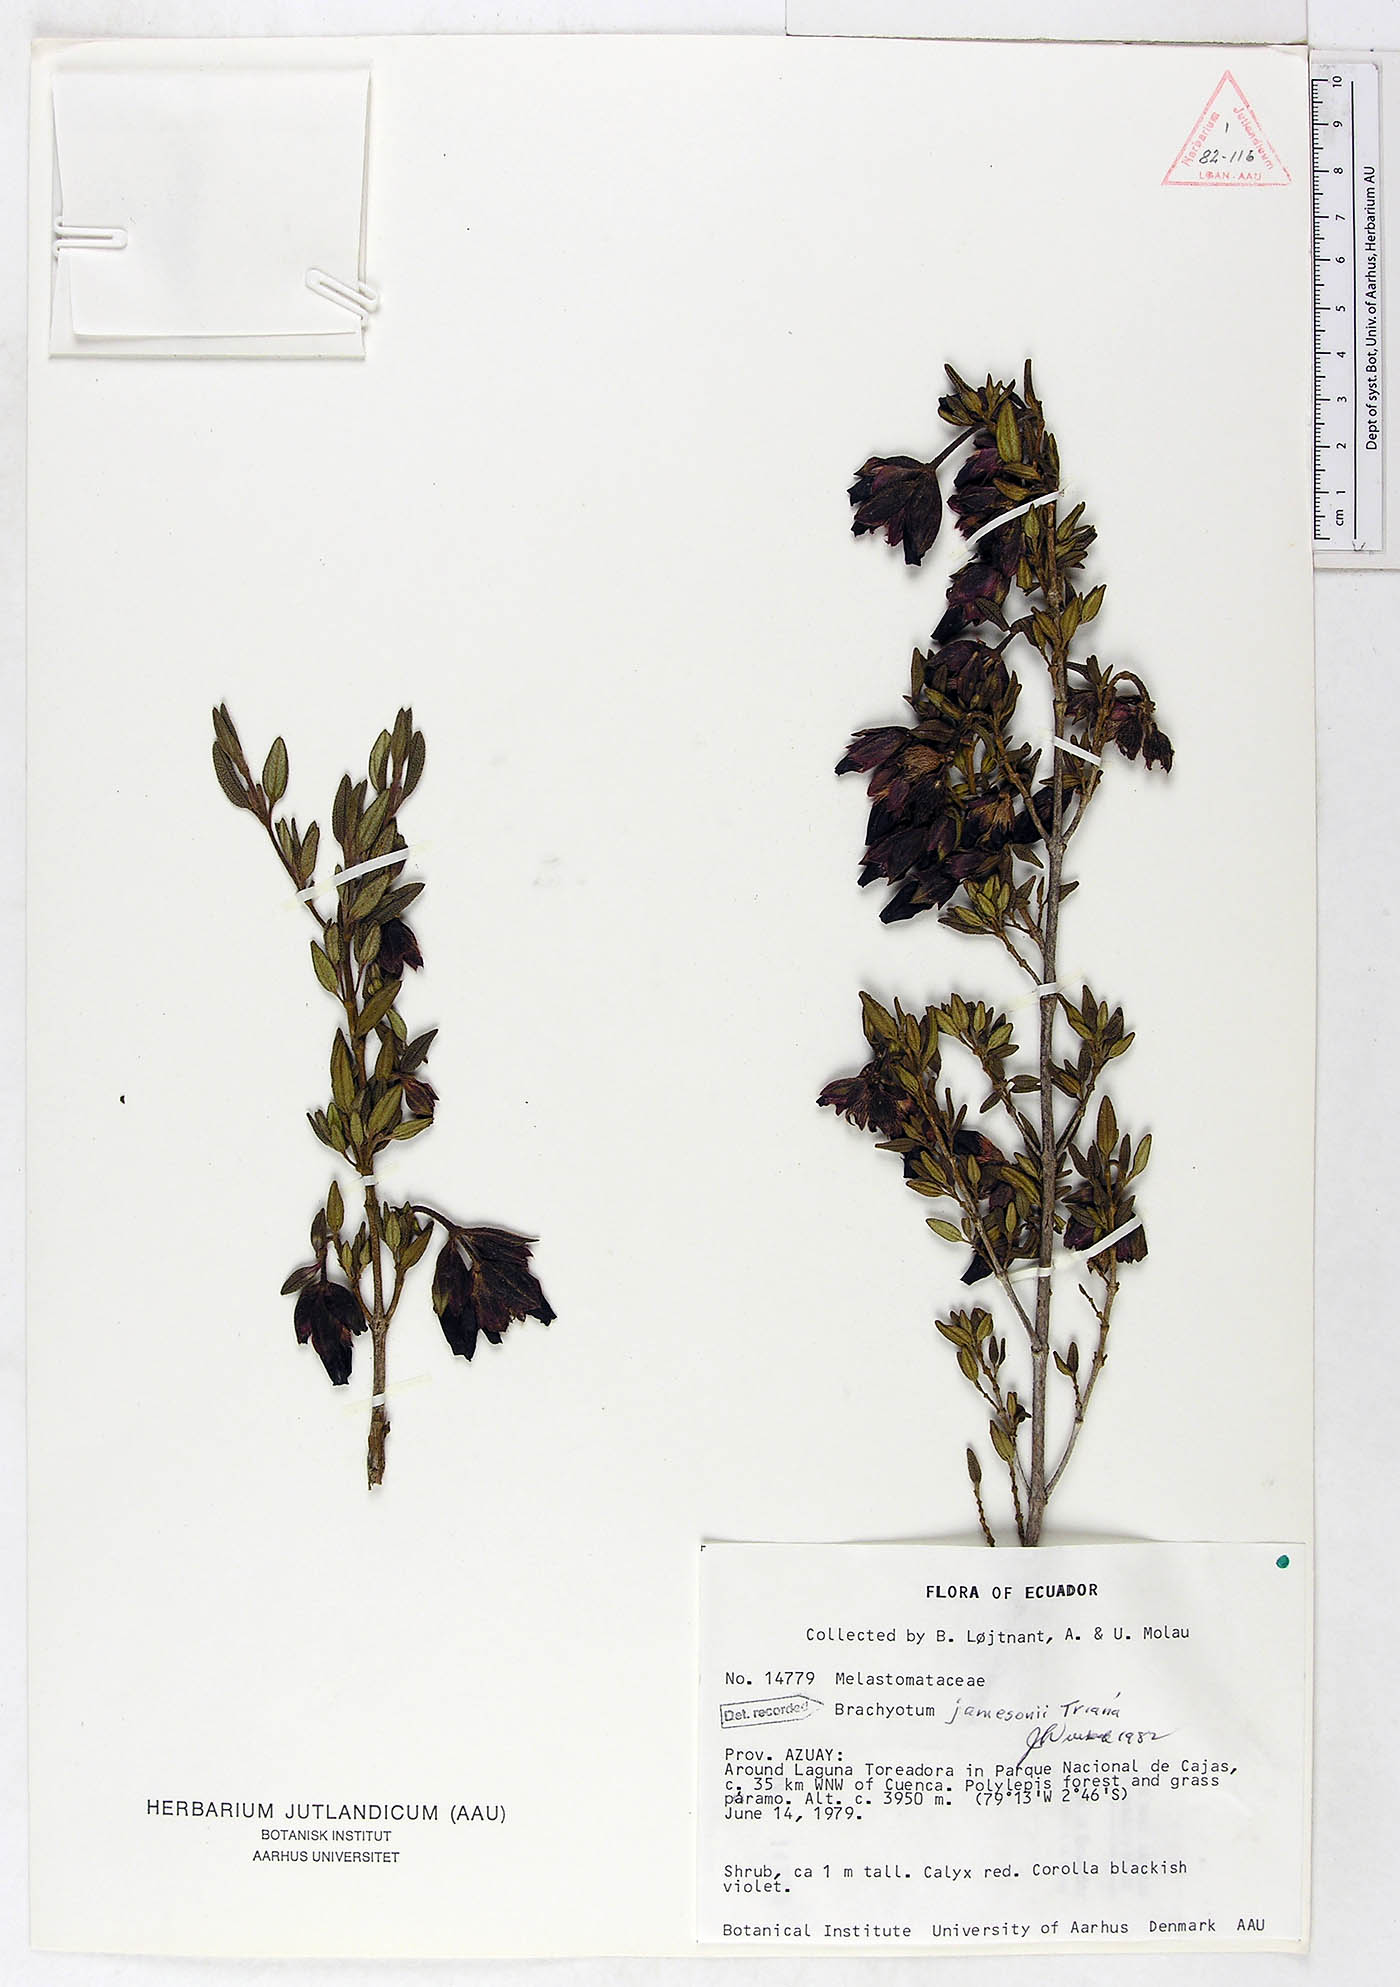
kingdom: Plantae
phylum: Tracheophyta
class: Magnoliopsida
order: Myrtales
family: Melastomataceae
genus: Brachyotum
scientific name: Brachyotum jamesonii
